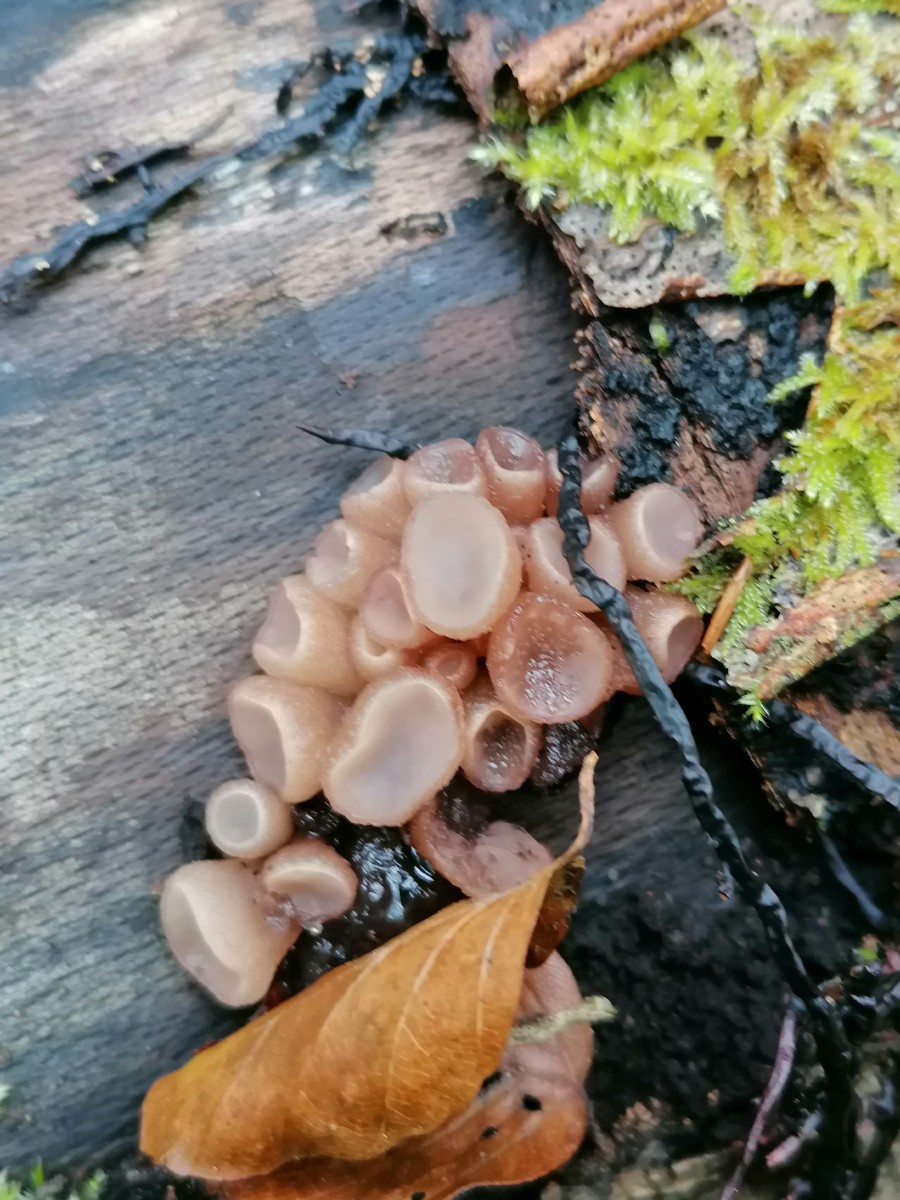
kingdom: Fungi
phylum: Ascomycota
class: Leotiomycetes
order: Helotiales
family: Gelatinodiscaceae
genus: Neobulgaria
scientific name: Neobulgaria pura
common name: bleg bævreskive
